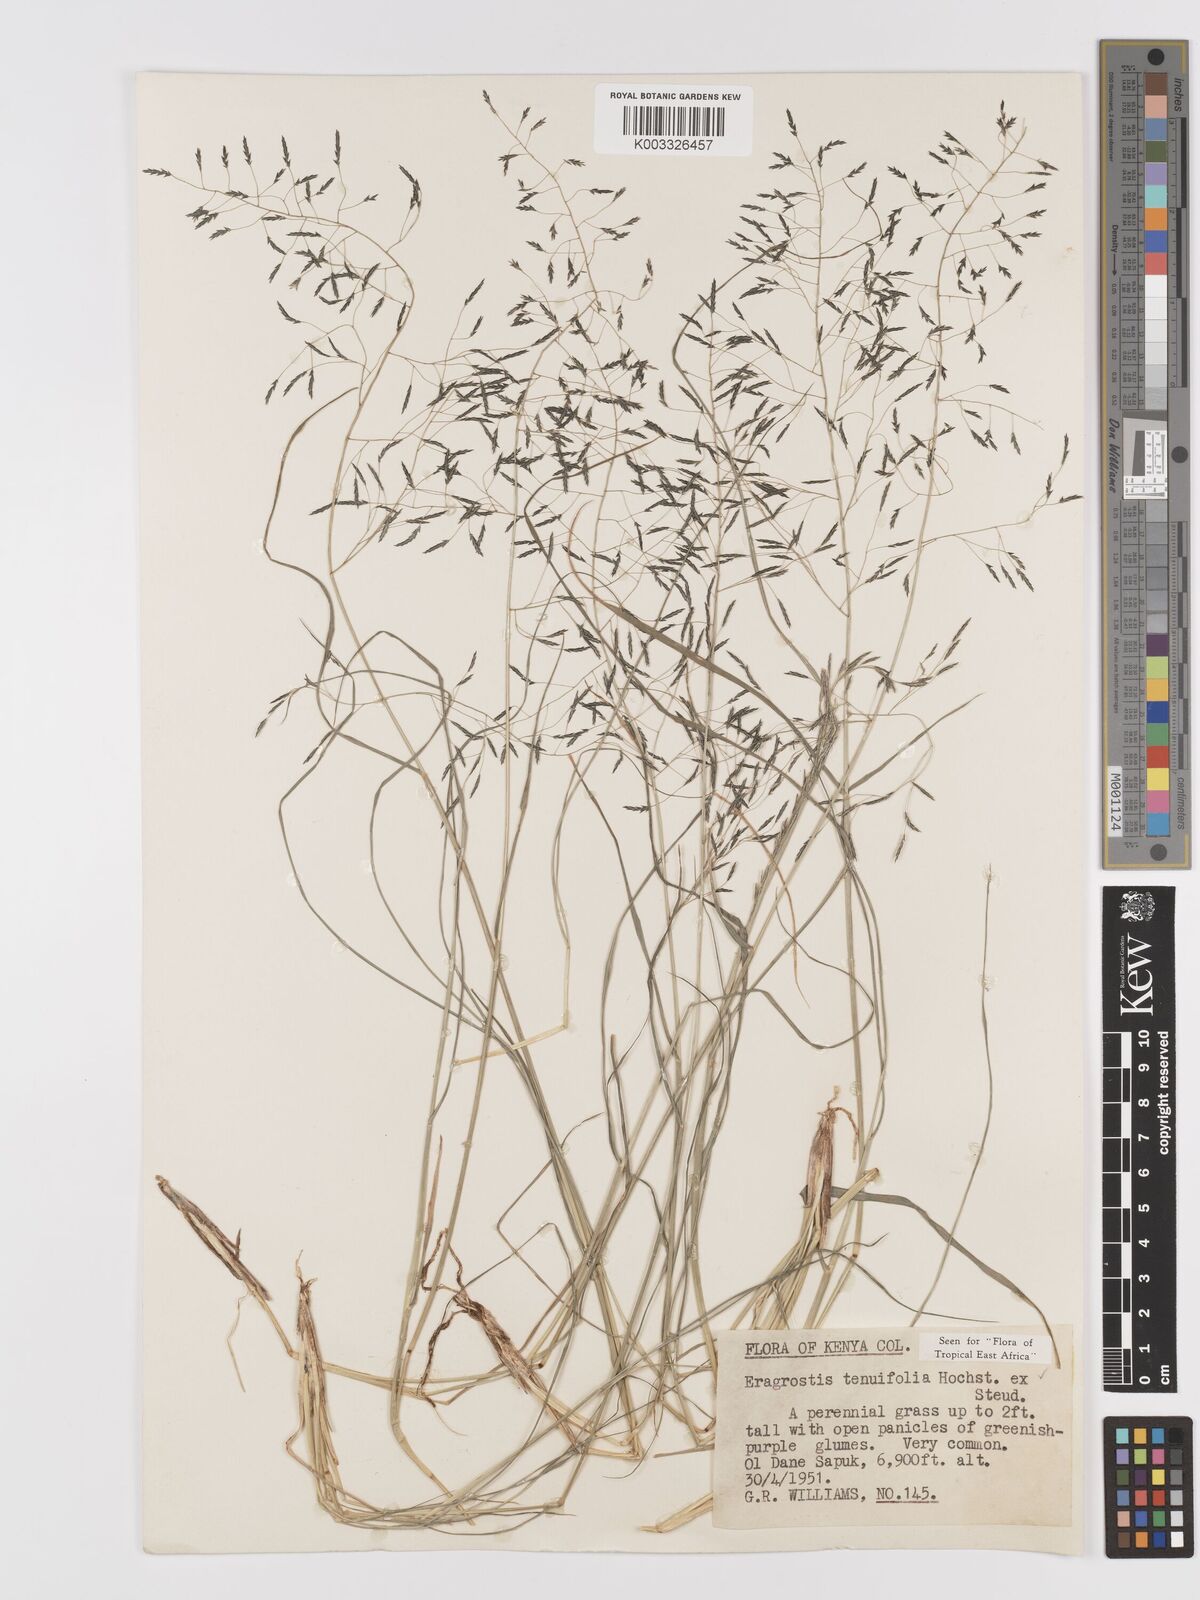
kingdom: Plantae
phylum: Tracheophyta
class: Liliopsida
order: Poales
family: Poaceae
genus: Eragrostis
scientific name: Eragrostis tenuifolia
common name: Elastic grass
